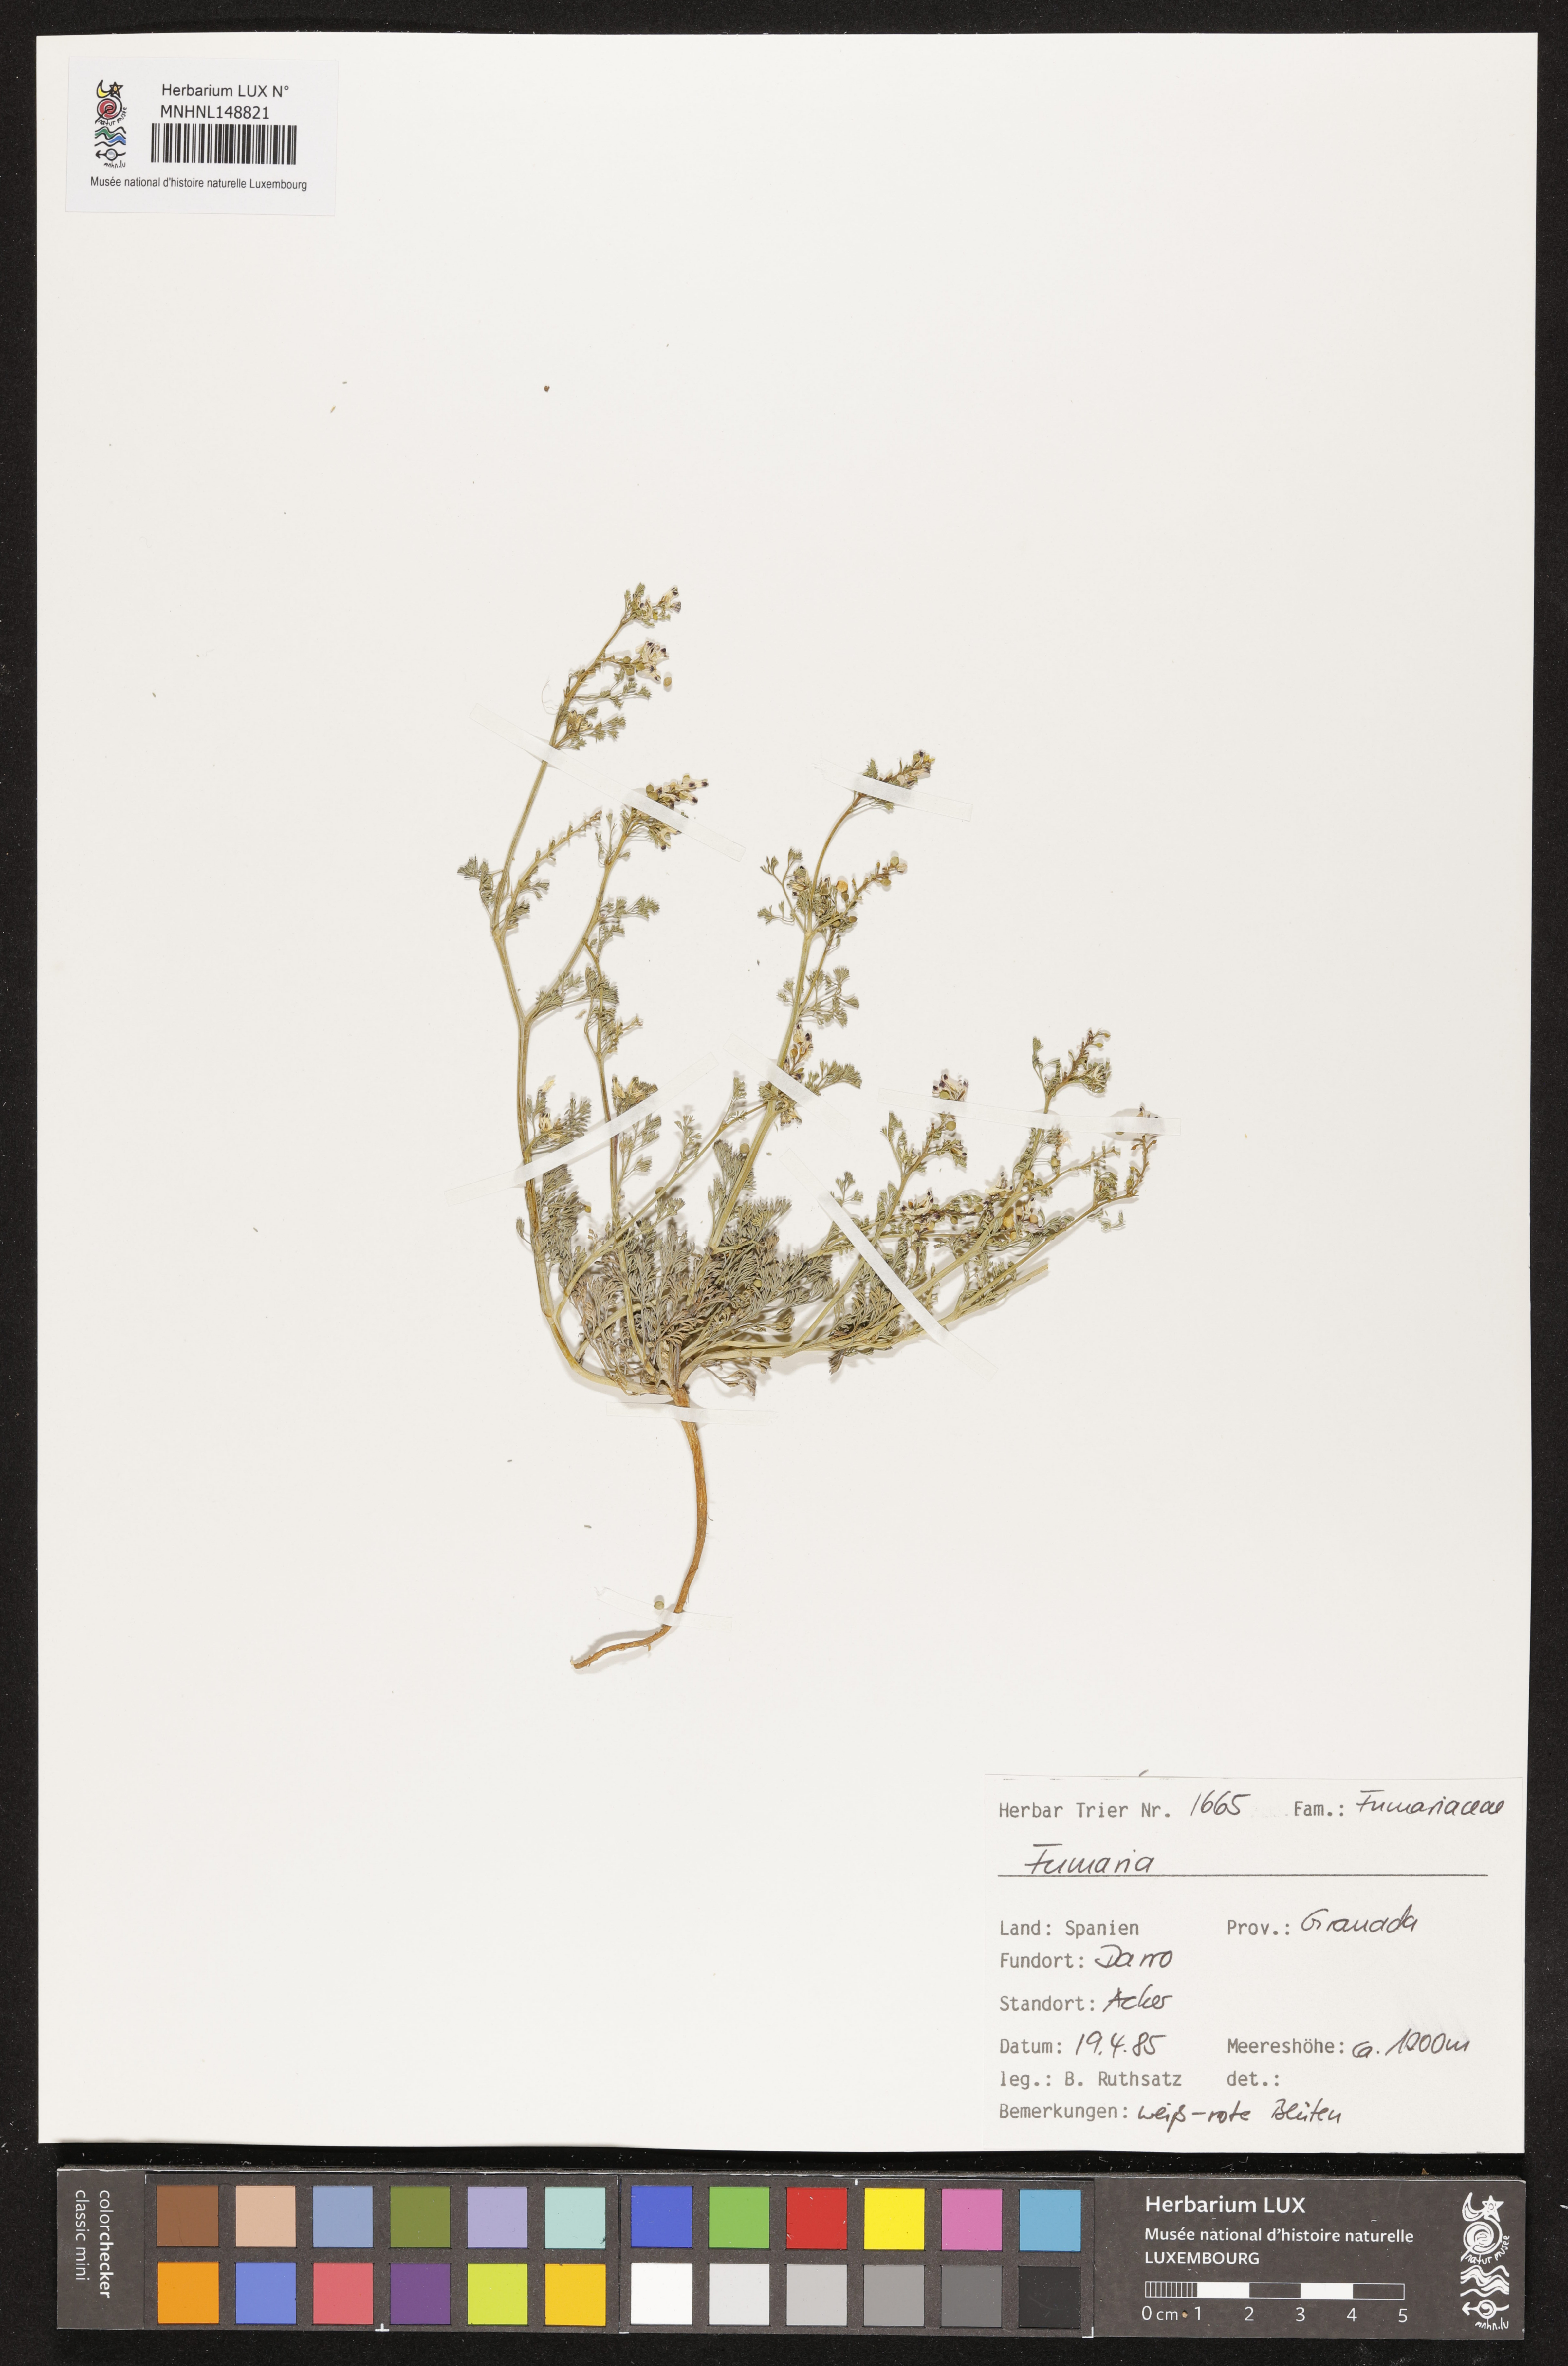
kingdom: Plantae
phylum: Tracheophyta
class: Magnoliopsida
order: Ranunculales
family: Papaveraceae
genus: Fumaria
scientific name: Fumaria
